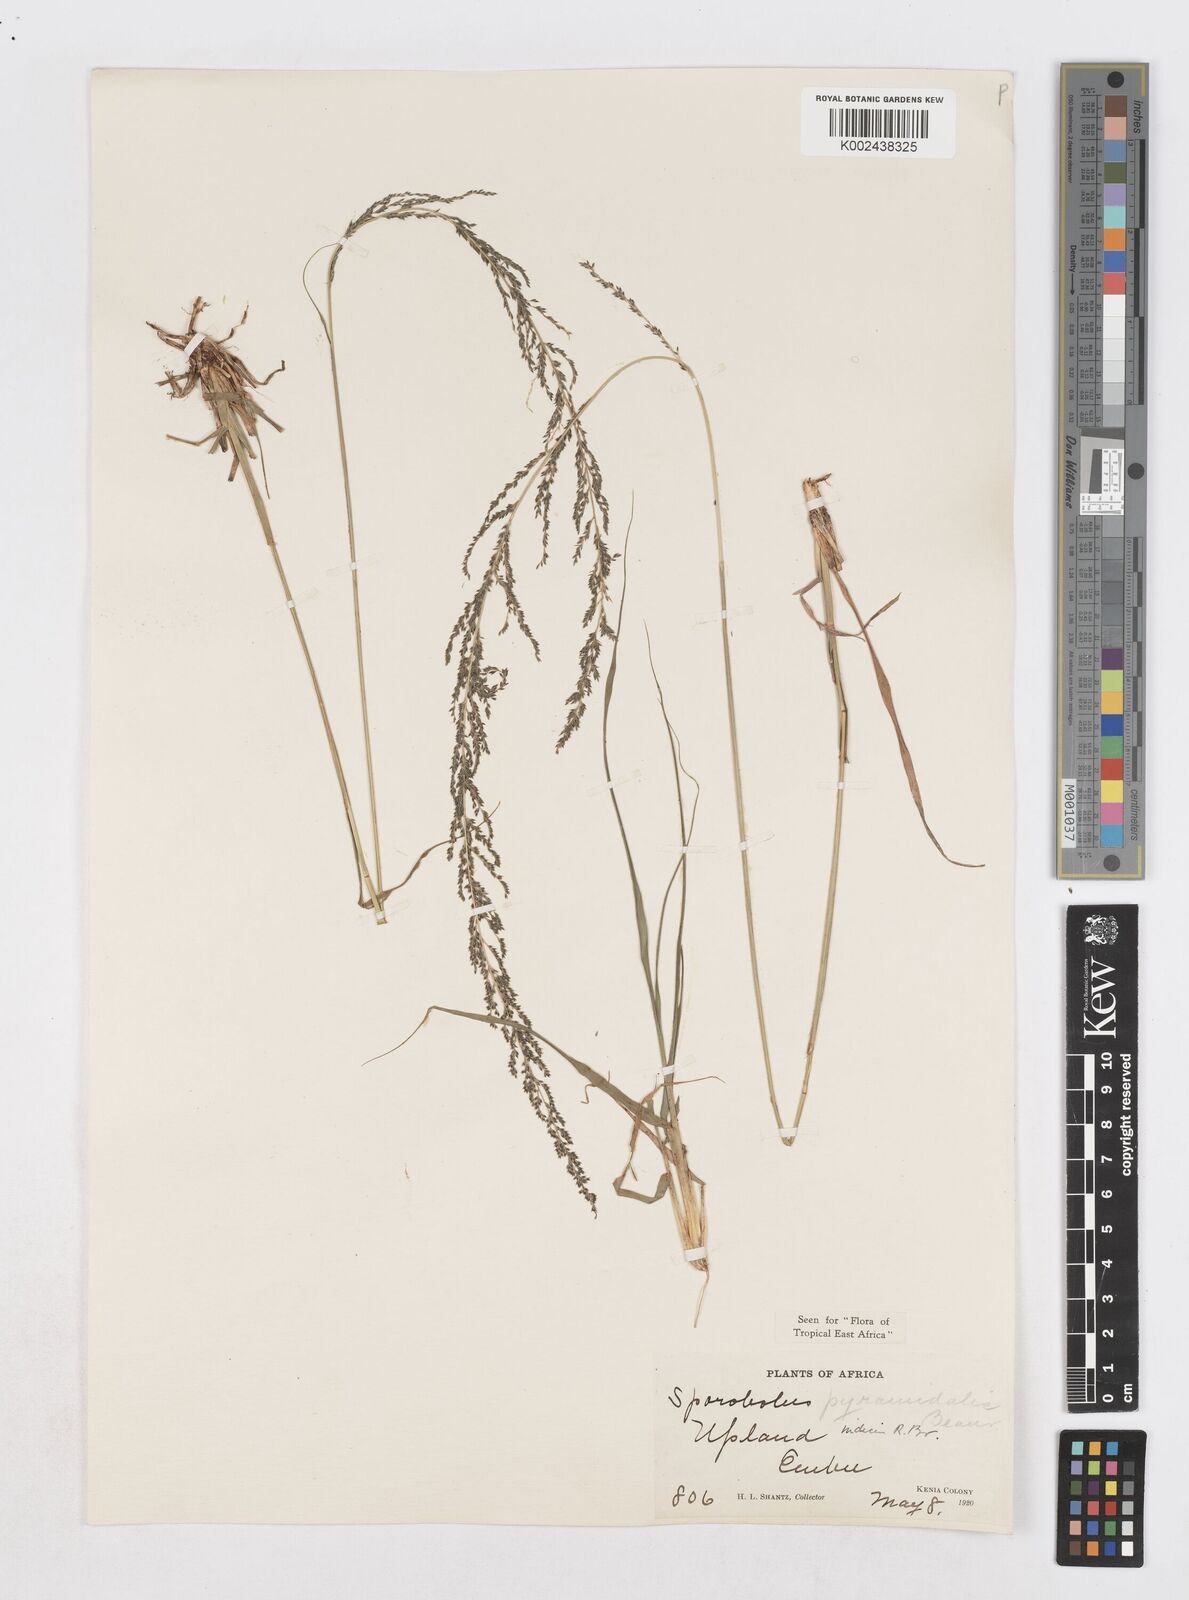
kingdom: Plantae
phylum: Tracheophyta
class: Liliopsida
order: Poales
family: Poaceae
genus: Sporobolus
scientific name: Sporobolus pyramidalis
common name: West indian dropseed
